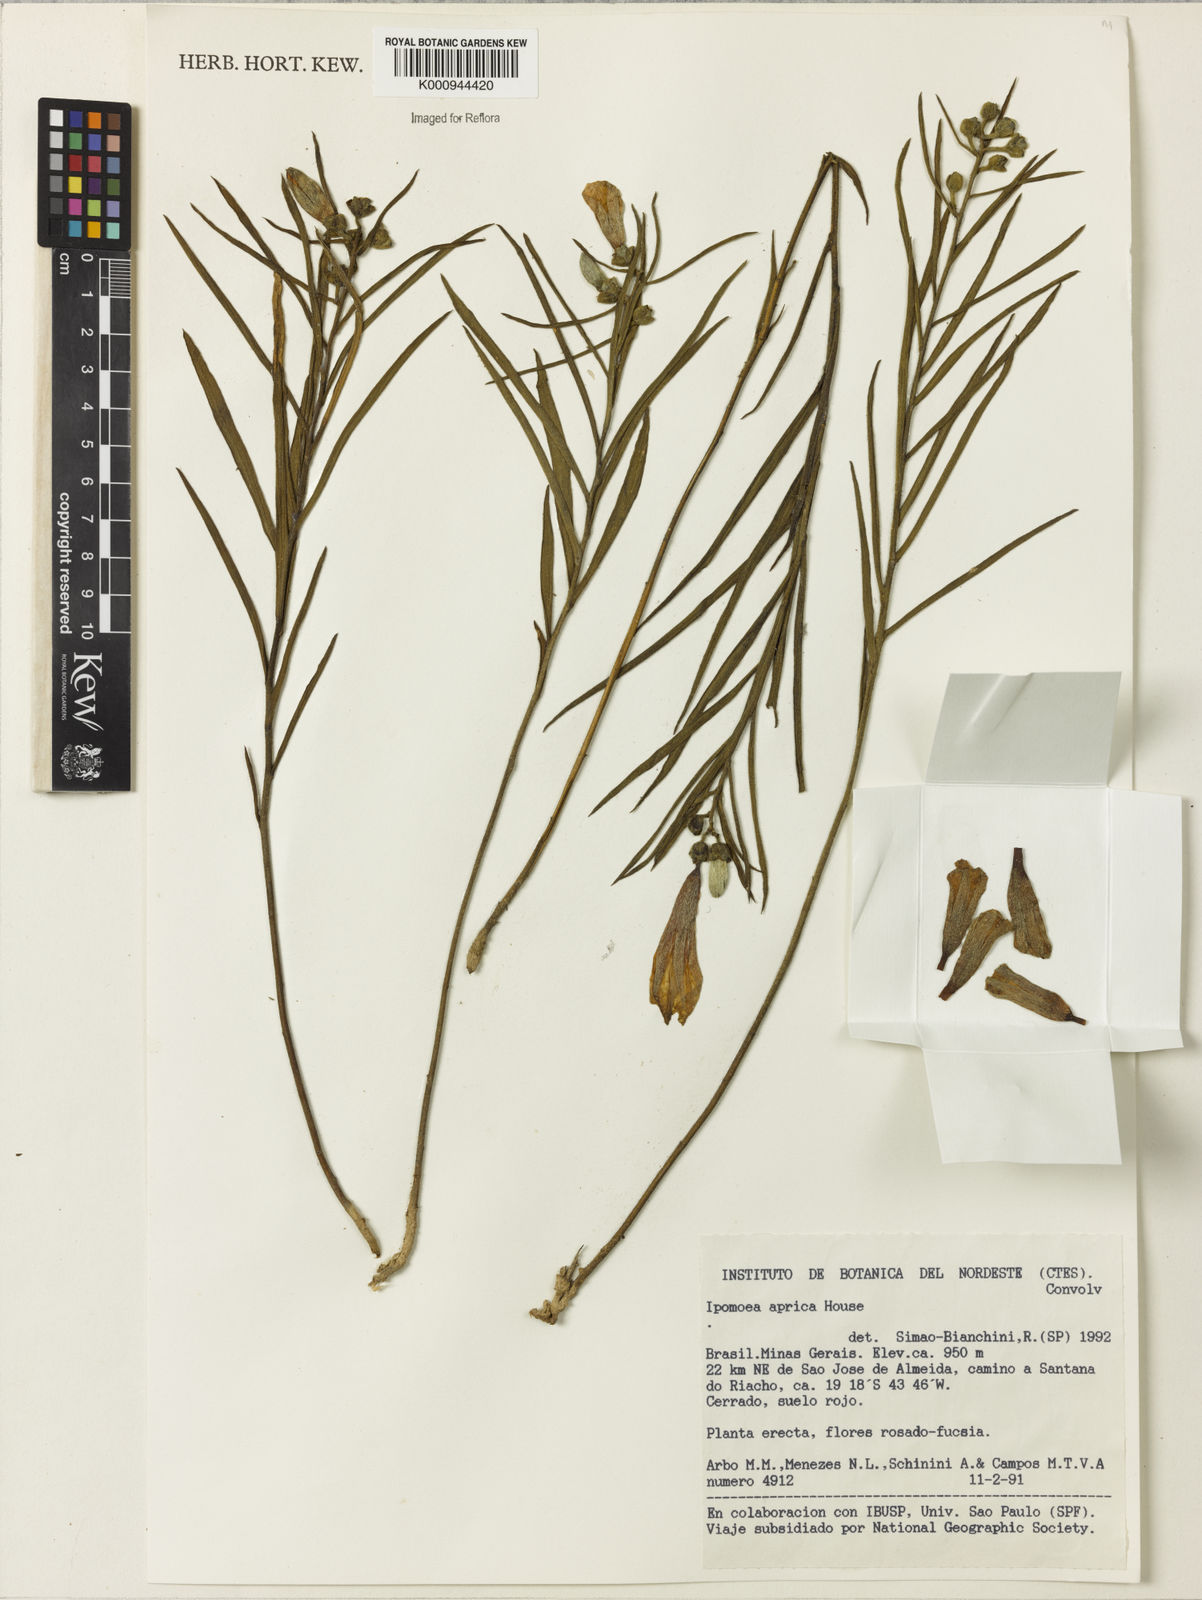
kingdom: Plantae
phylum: Tracheophyta
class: Magnoliopsida
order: Solanales
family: Convolvulaceae
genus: Ipomoea
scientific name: Ipomoea
